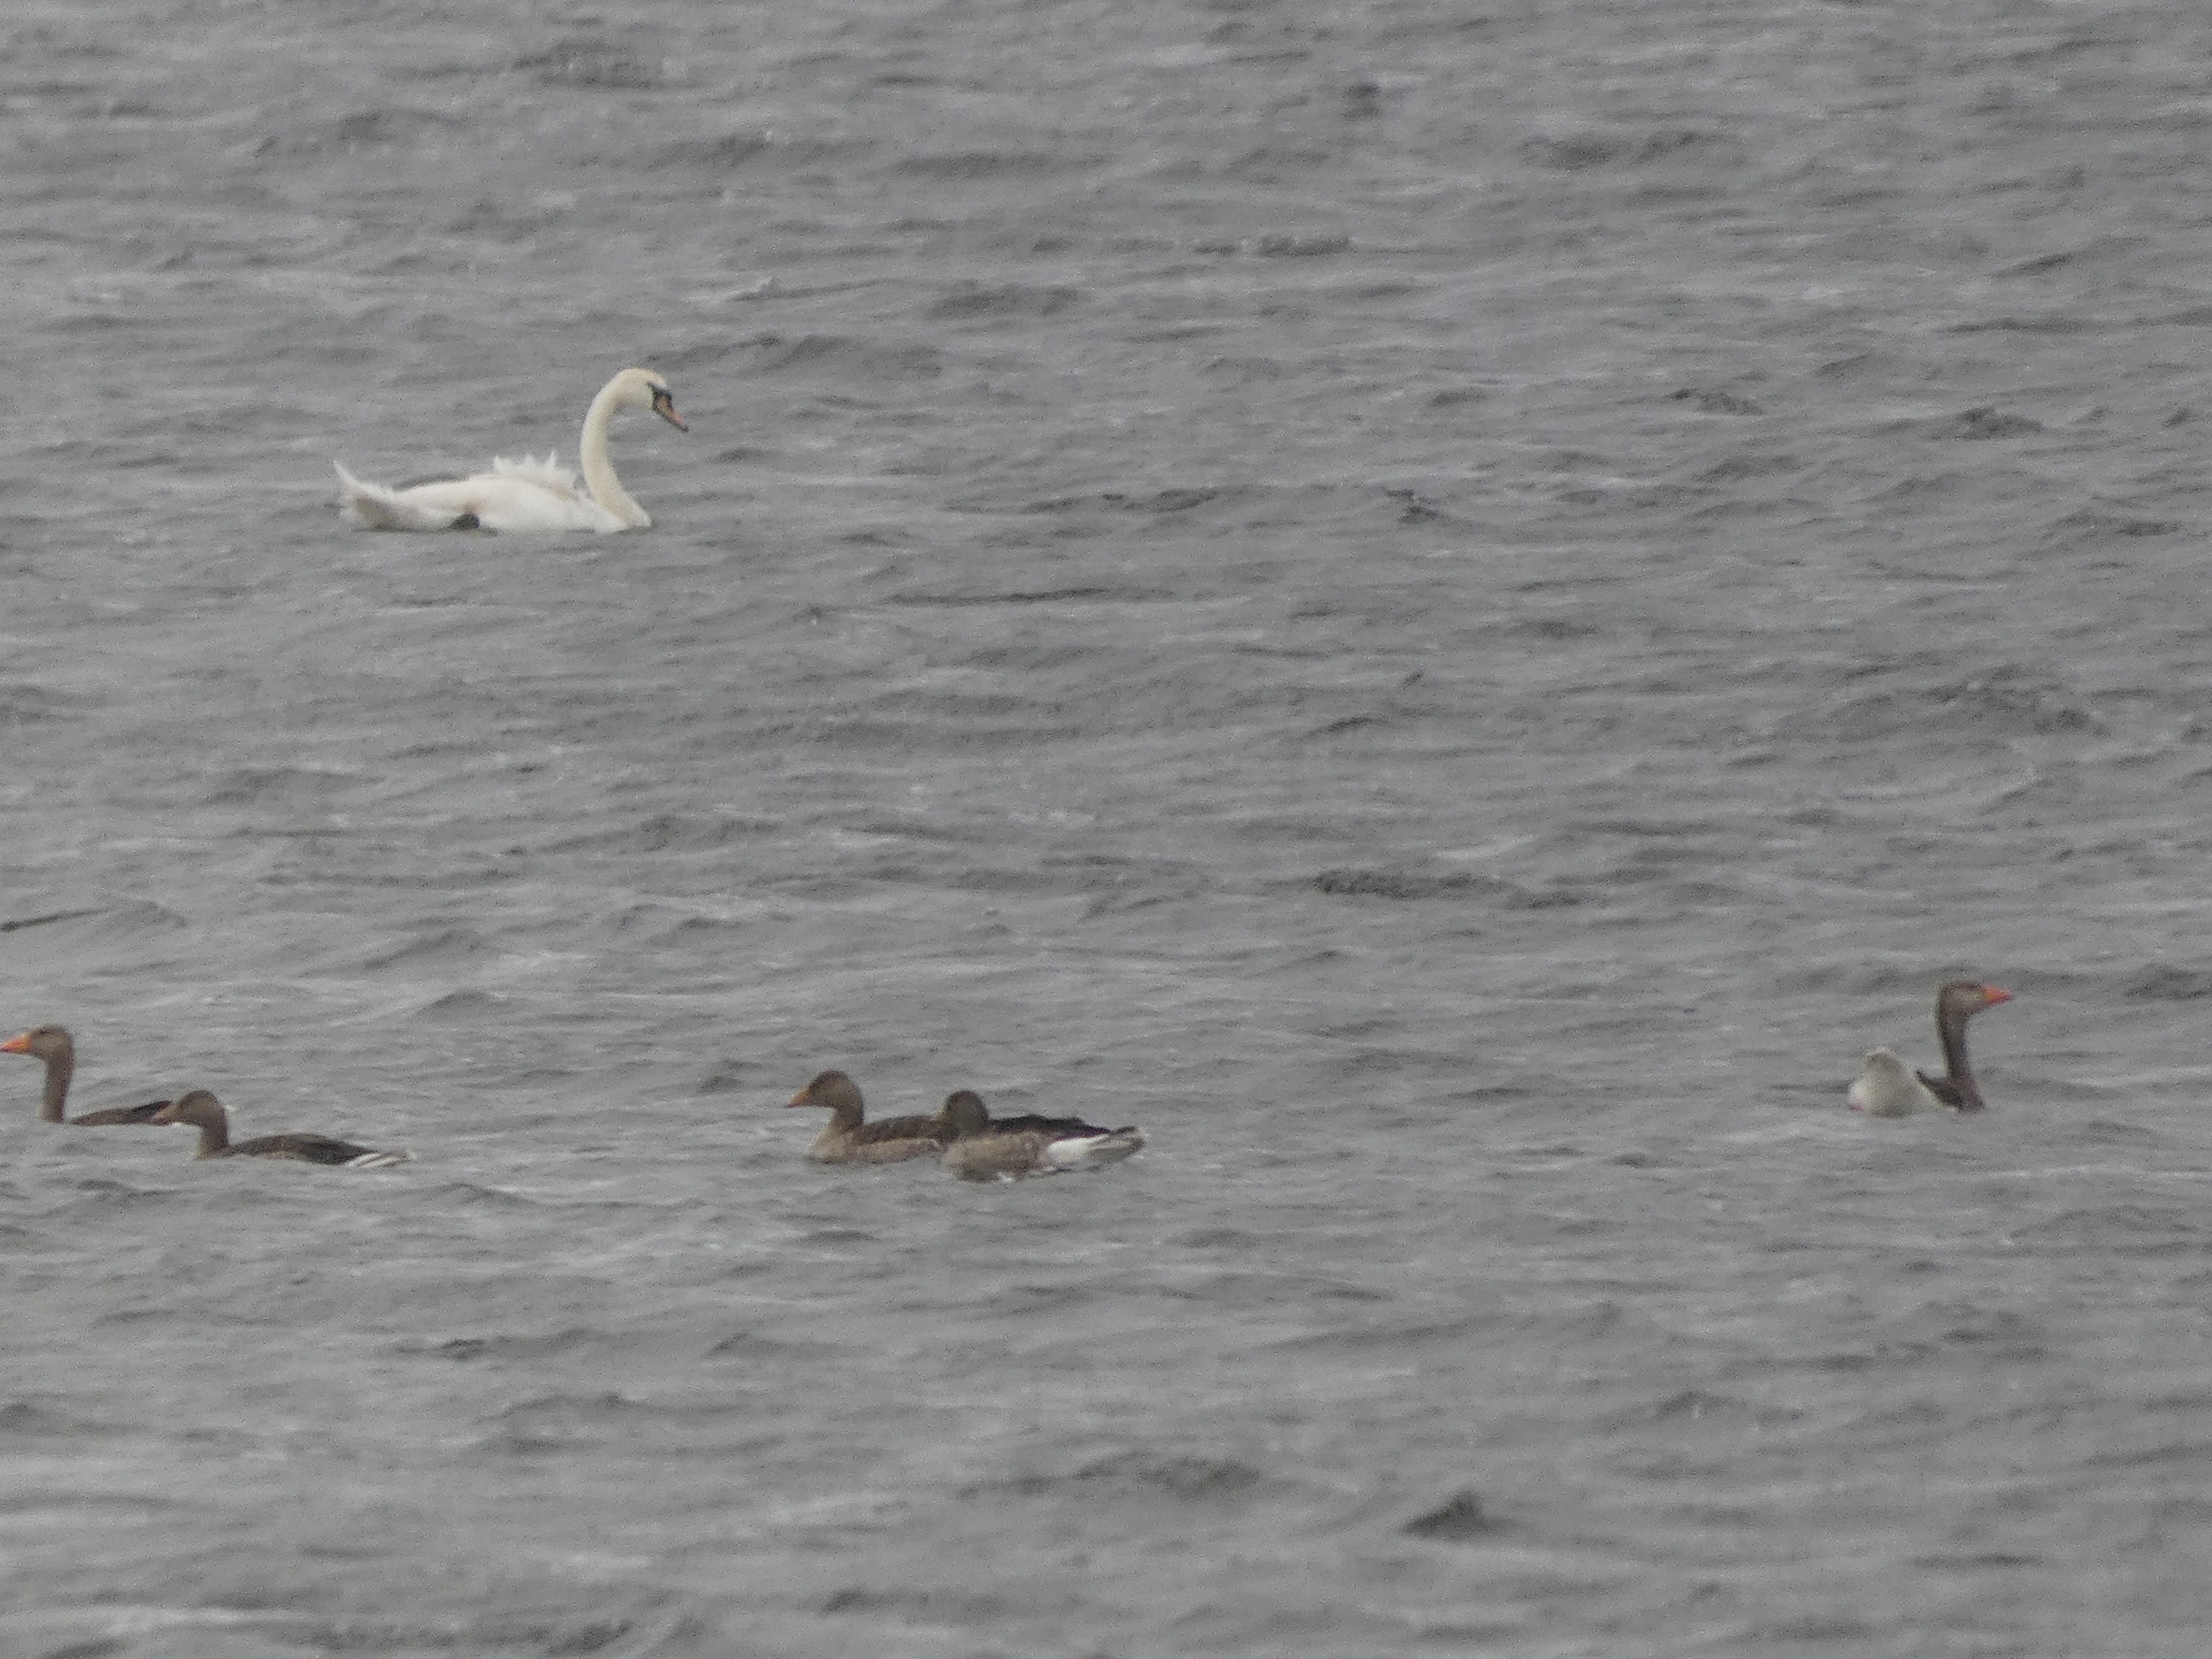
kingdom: Animalia
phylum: Chordata
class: Aves
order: Anseriformes
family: Anatidae
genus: Cygnus
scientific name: Cygnus olor
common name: Knopsvane
